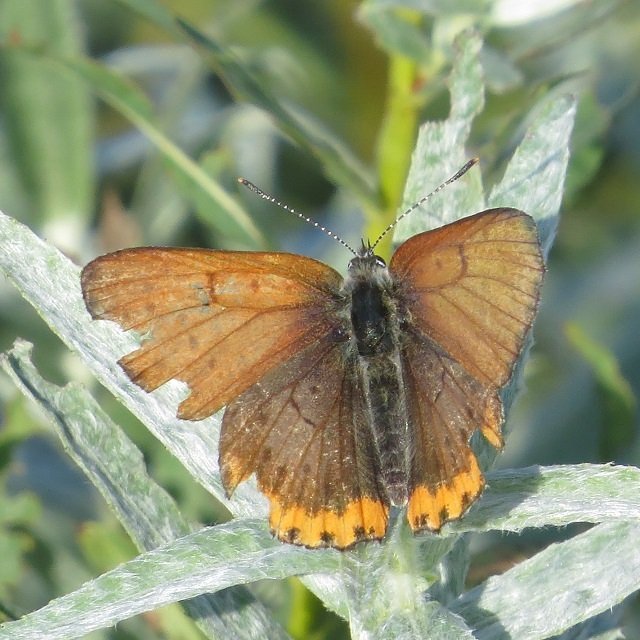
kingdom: Animalia
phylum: Arthropoda
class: Insecta
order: Lepidoptera
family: Sesiidae
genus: Sesia
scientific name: Sesia Lycaena hyllus
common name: Bronze Copper
